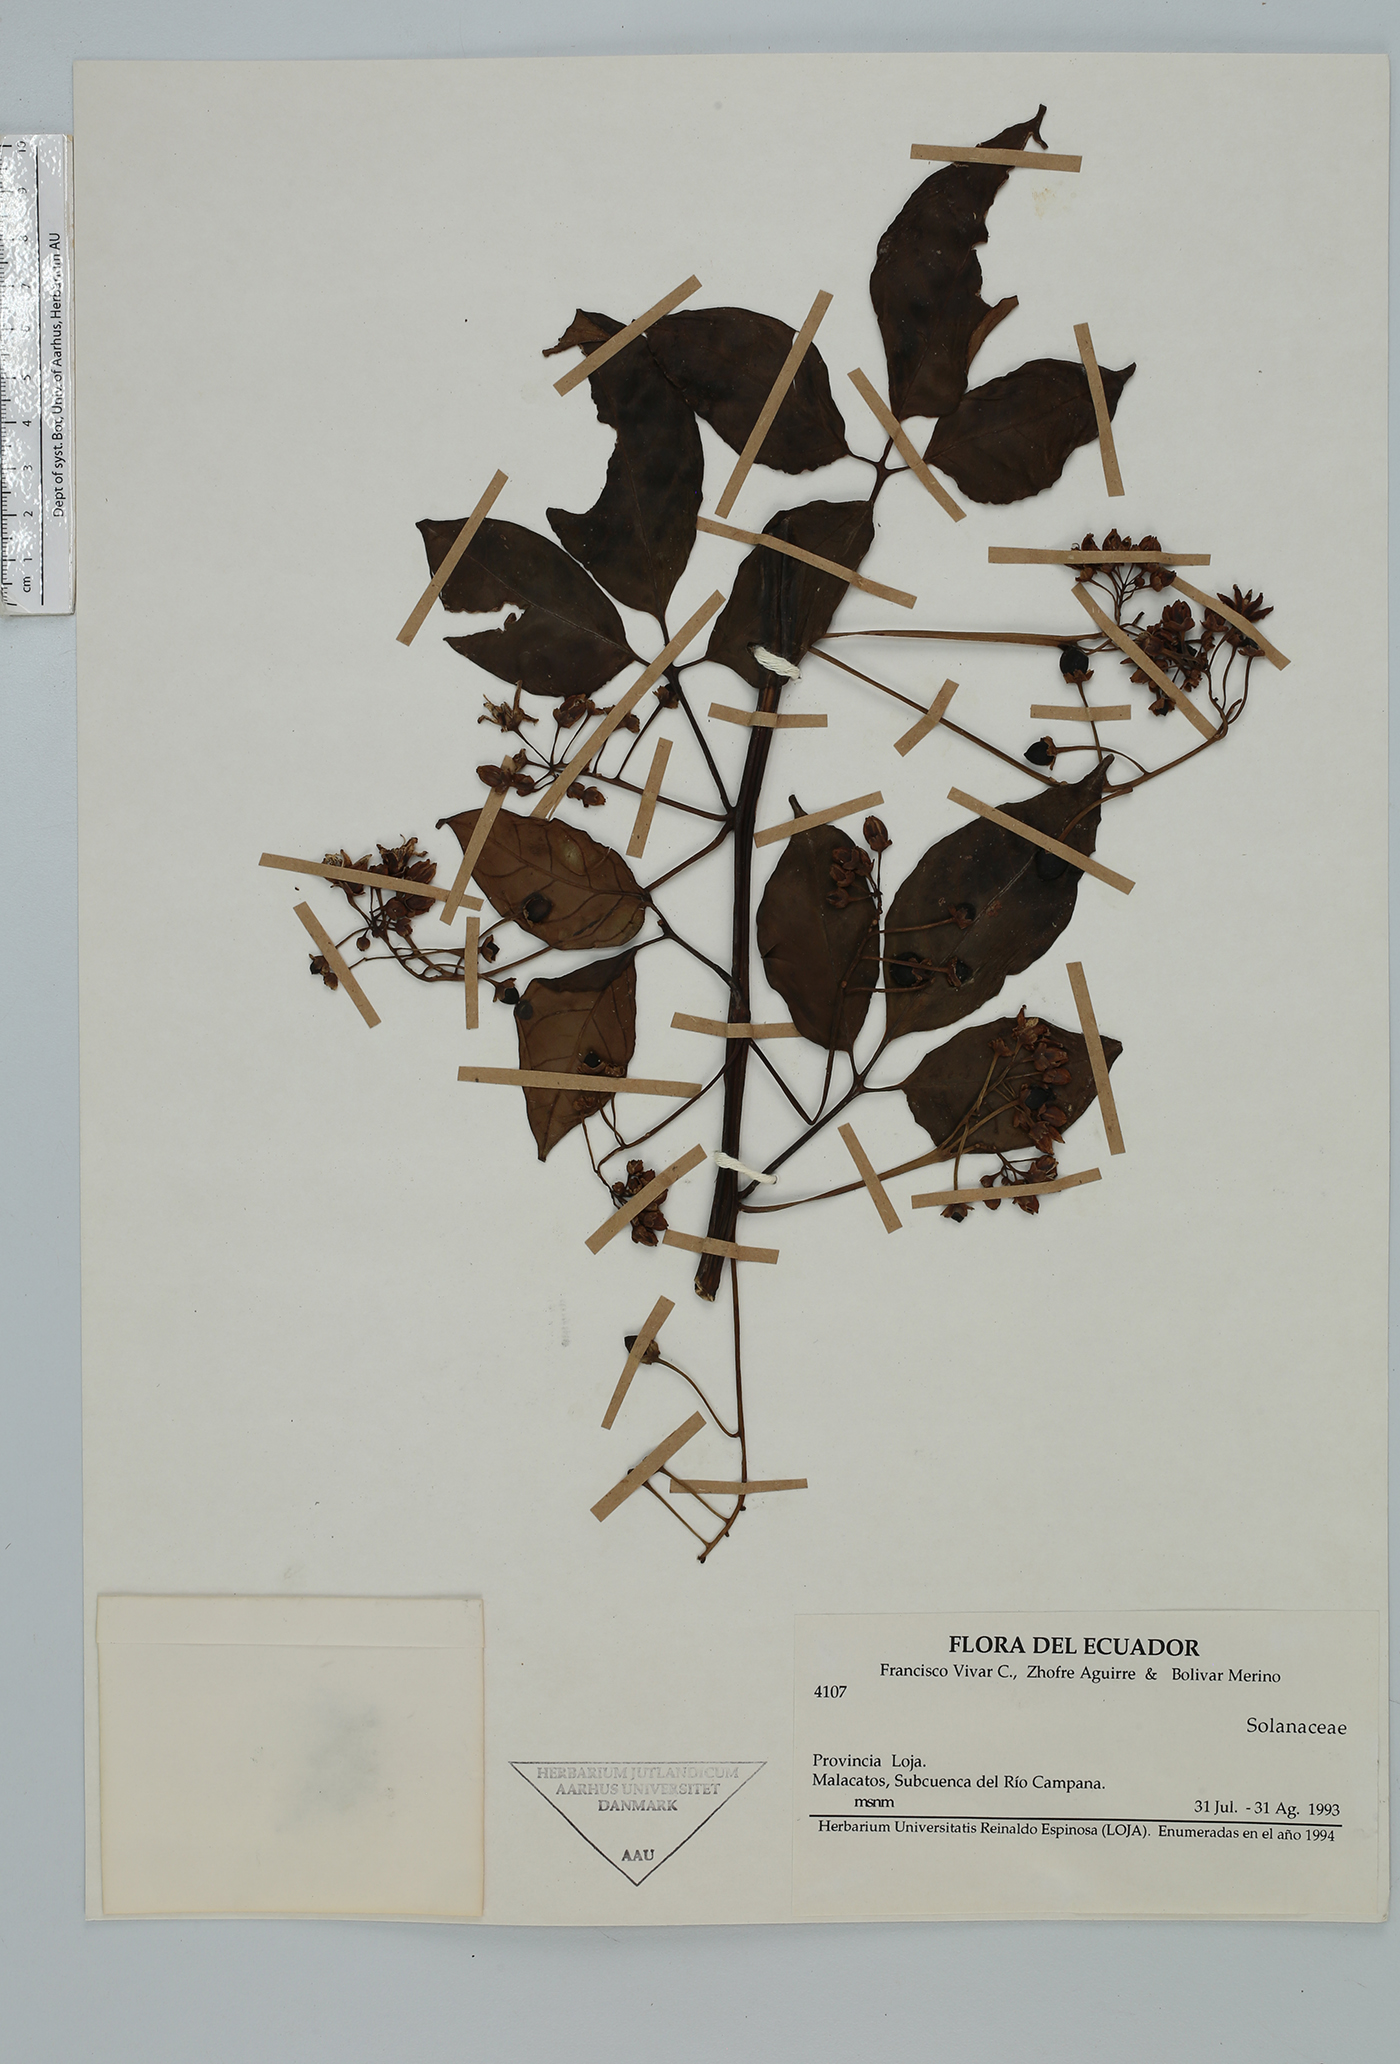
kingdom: Plantae
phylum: Tracheophyta
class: Magnoliopsida
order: Solanales
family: Solanaceae
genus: Solanum
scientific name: Solanum ternatum
